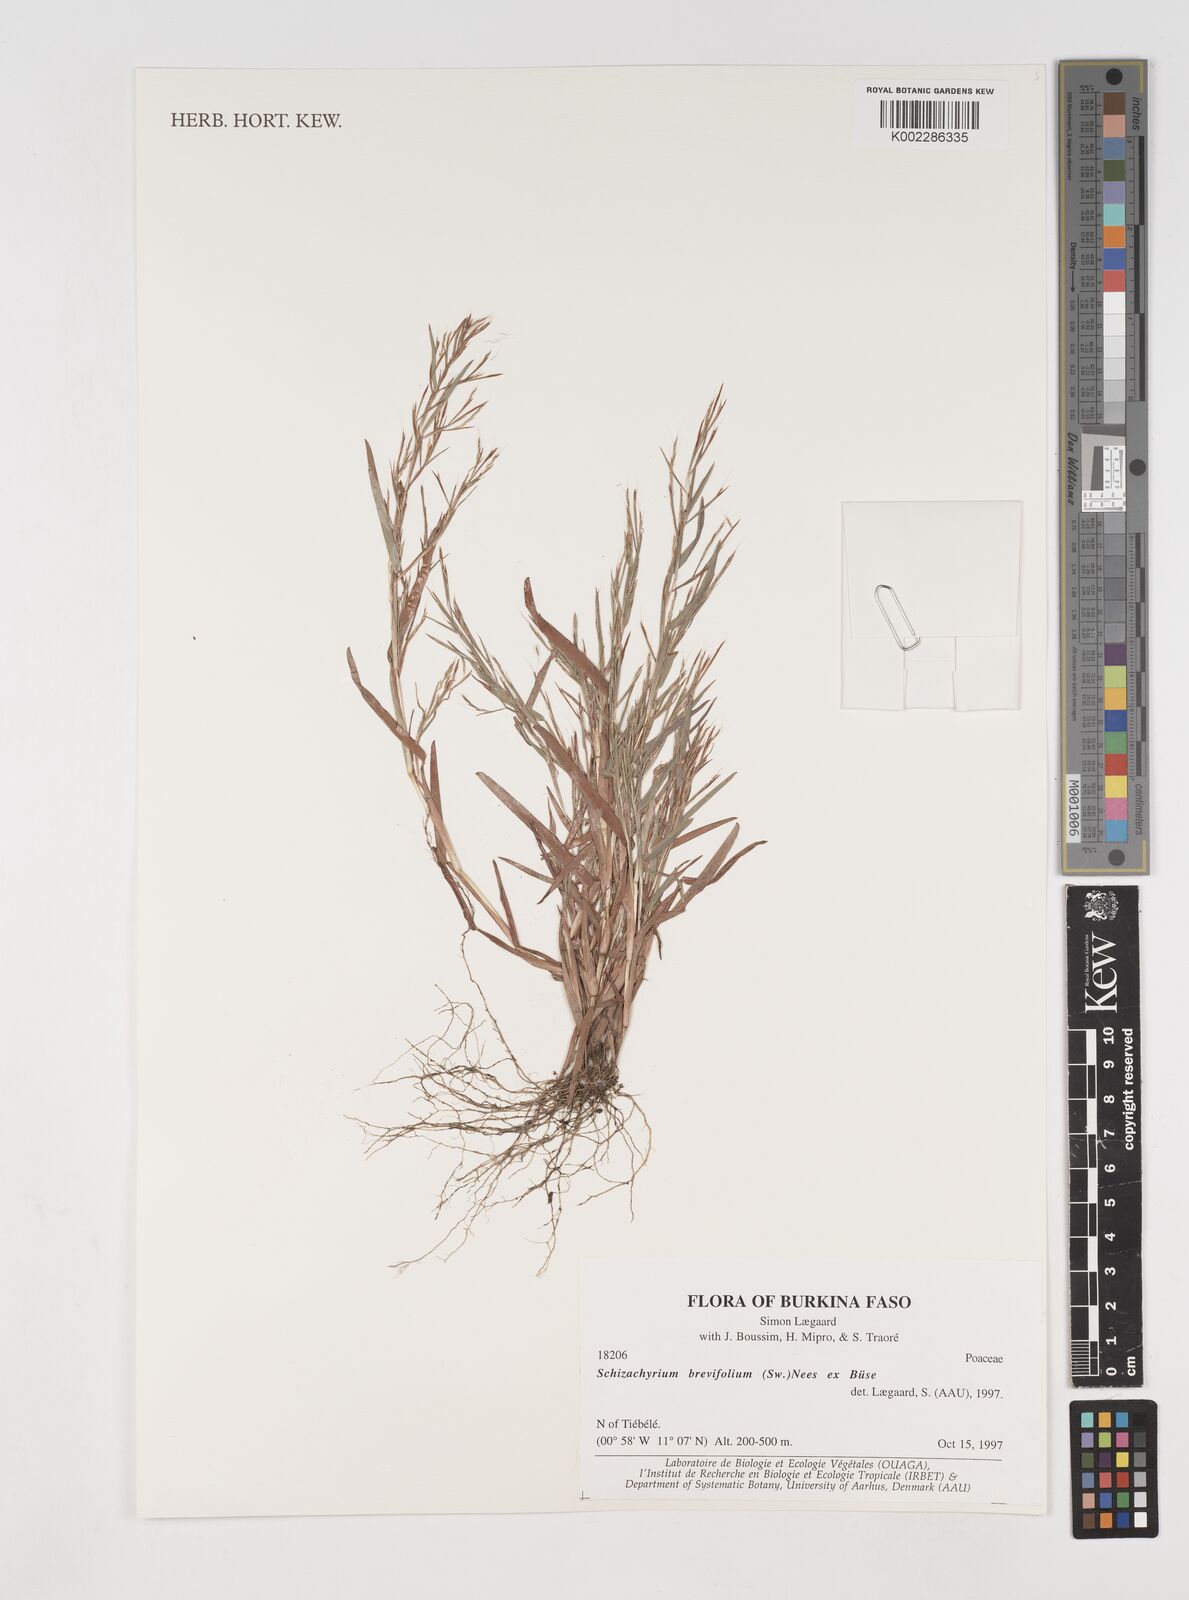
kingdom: Plantae
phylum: Tracheophyta
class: Liliopsida
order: Poales
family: Poaceae
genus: Schizachyrium
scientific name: Schizachyrium brevifolium
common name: Serillo dulce
